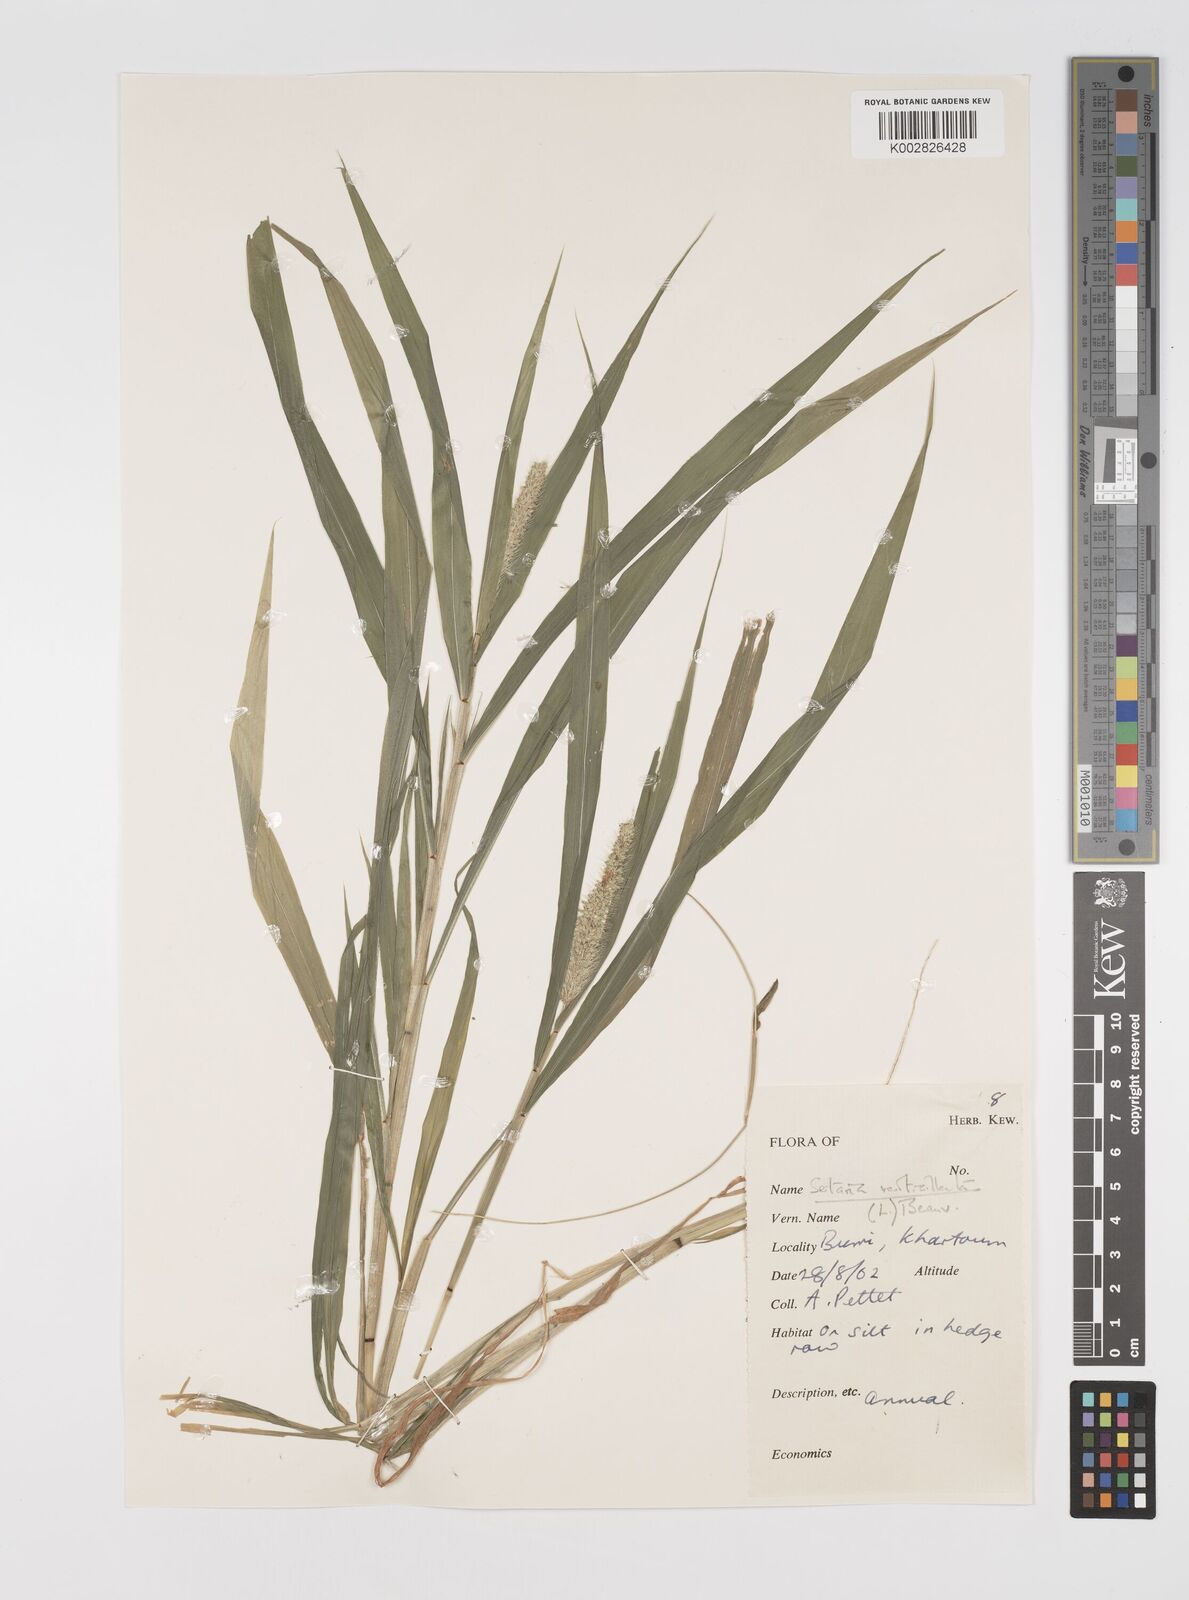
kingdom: Plantae
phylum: Tracheophyta
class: Liliopsida
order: Poales
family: Poaceae
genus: Setaria
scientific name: Setaria verticillata
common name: Hooked bristlegrass
